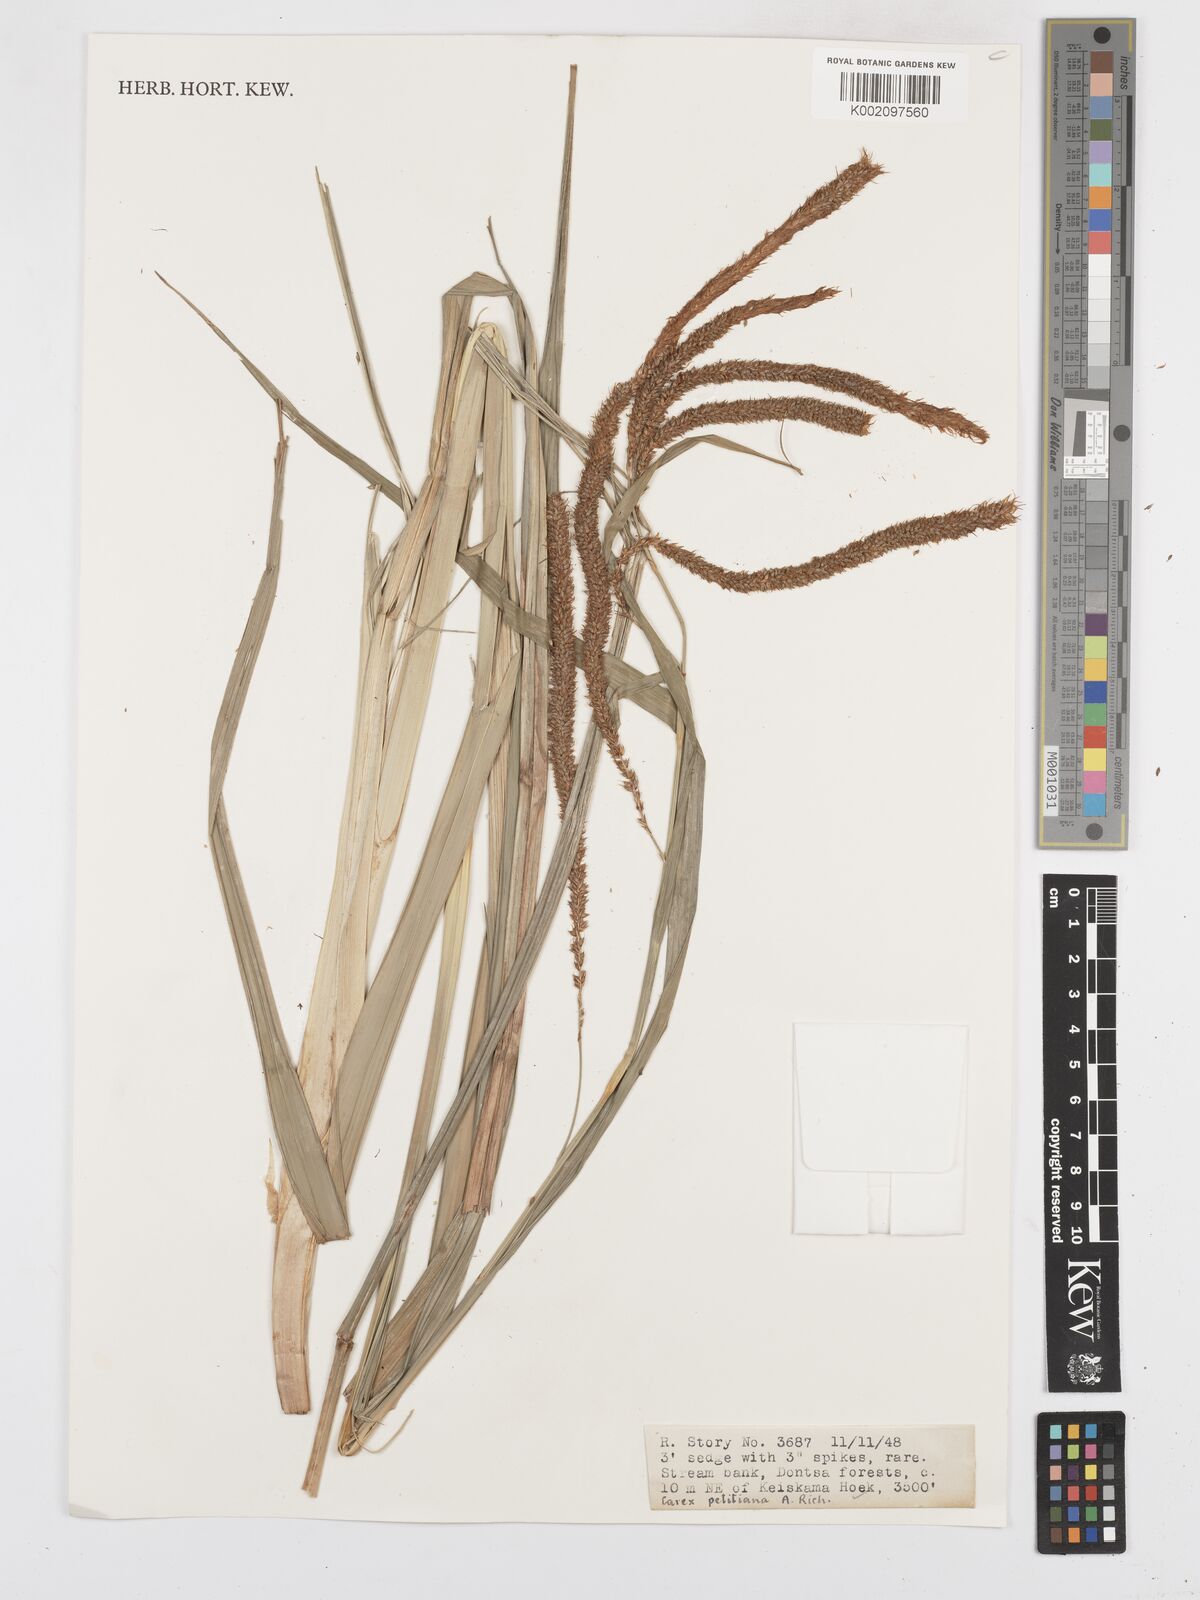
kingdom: Plantae
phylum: Tracheophyta
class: Liliopsida
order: Poales
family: Cyperaceae
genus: Carex
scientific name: Carex petitiana
